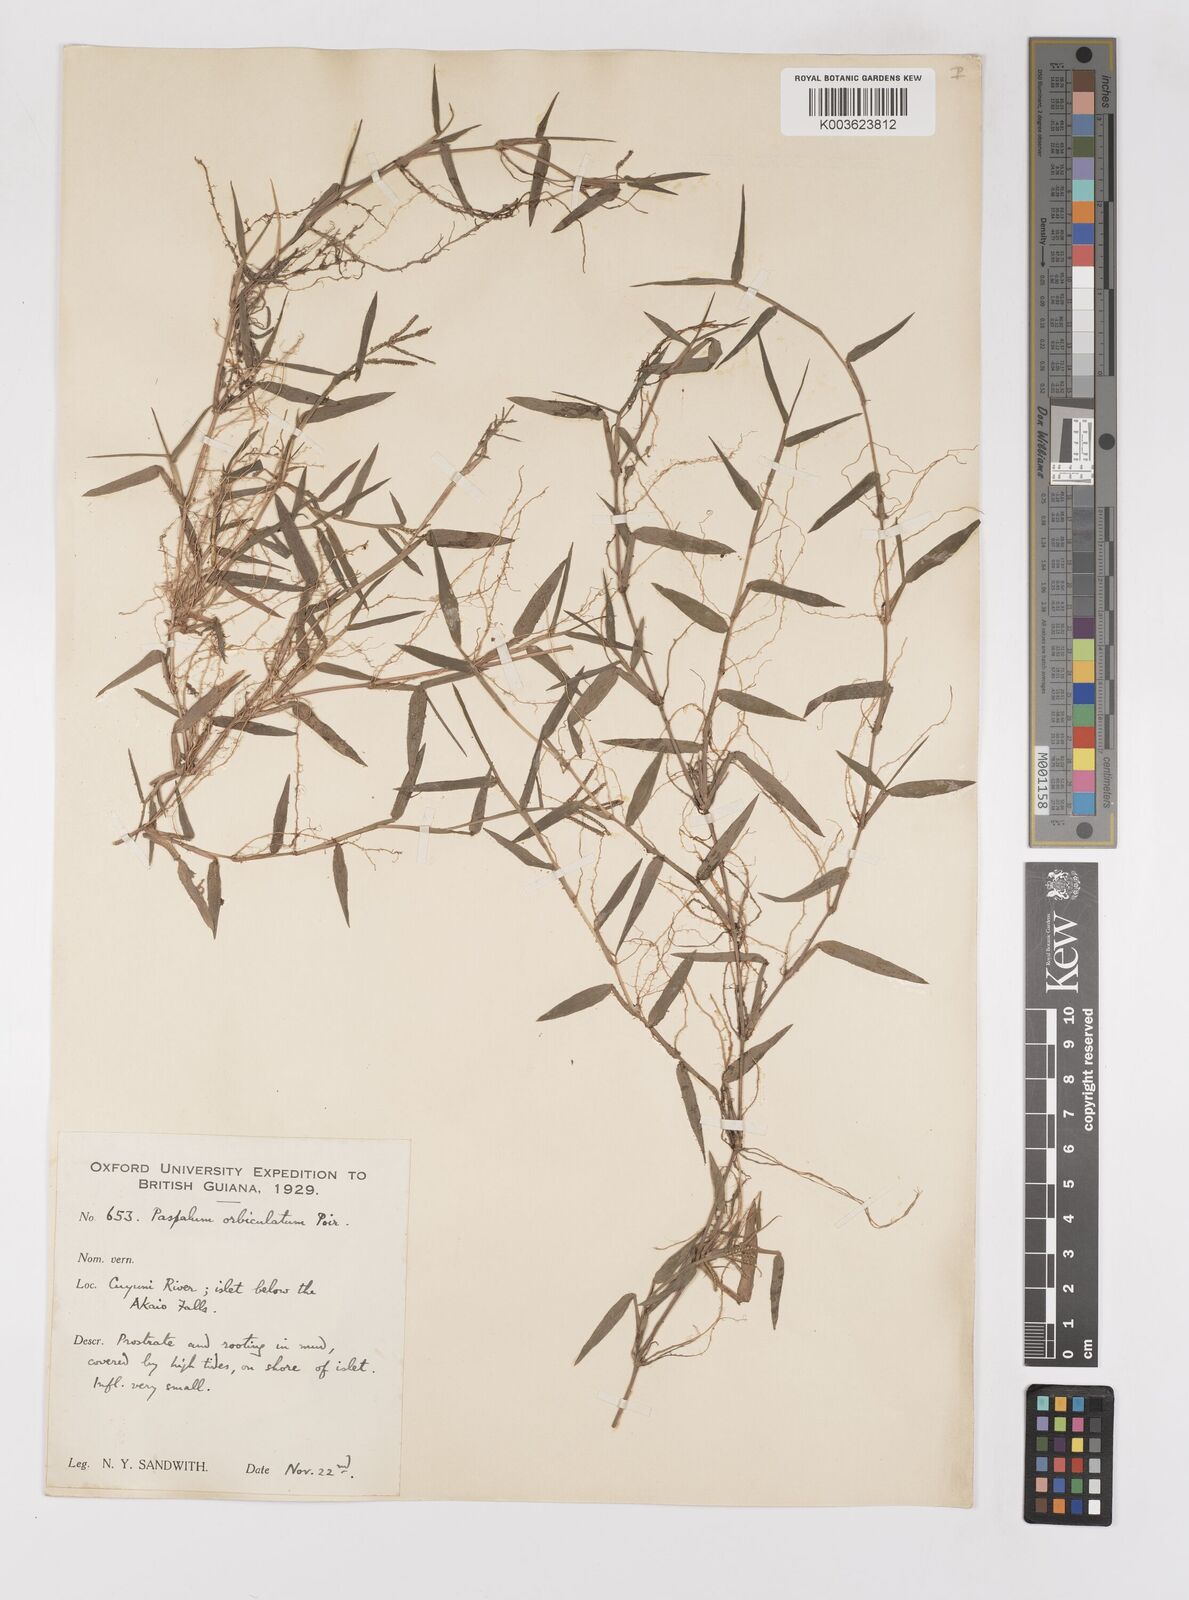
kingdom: Plantae
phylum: Tracheophyta
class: Liliopsida
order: Poales
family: Poaceae
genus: Paspalum
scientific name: Paspalum orbiculatum
